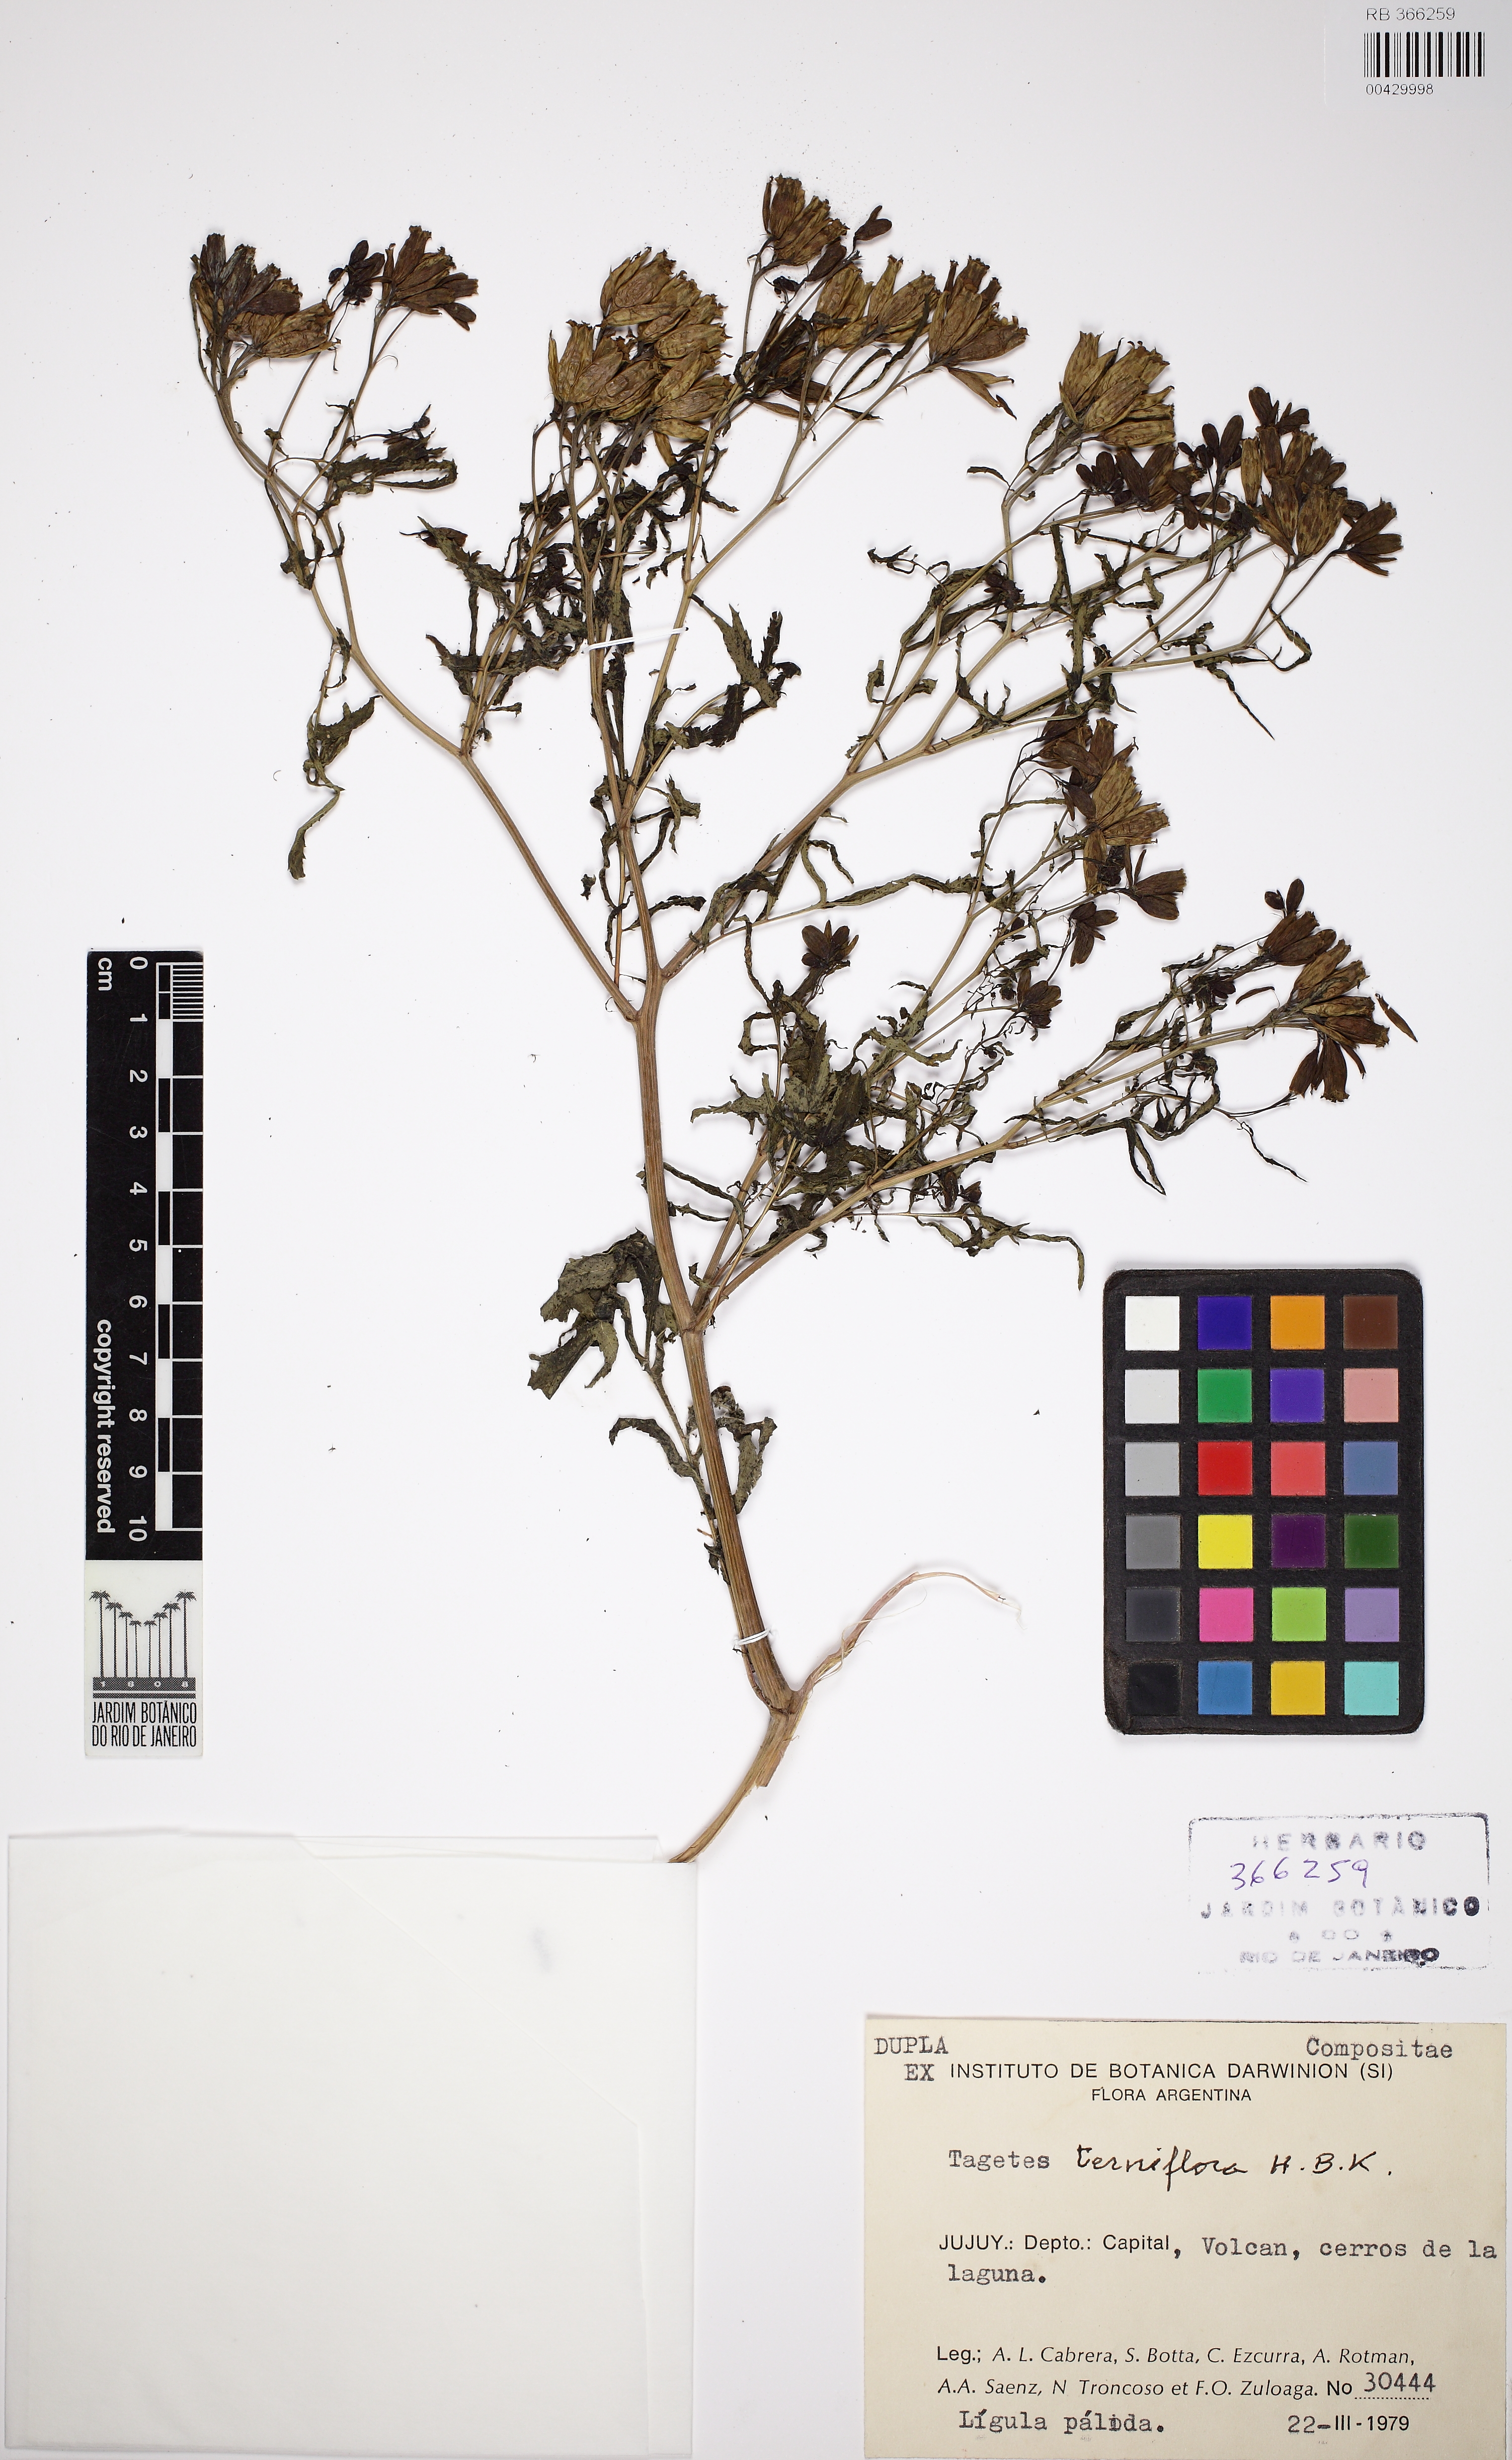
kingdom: Plantae
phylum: Tracheophyta
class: Magnoliopsida
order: Asterales
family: Asteraceae
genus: Tagetes
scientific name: Tagetes tenuiflora
